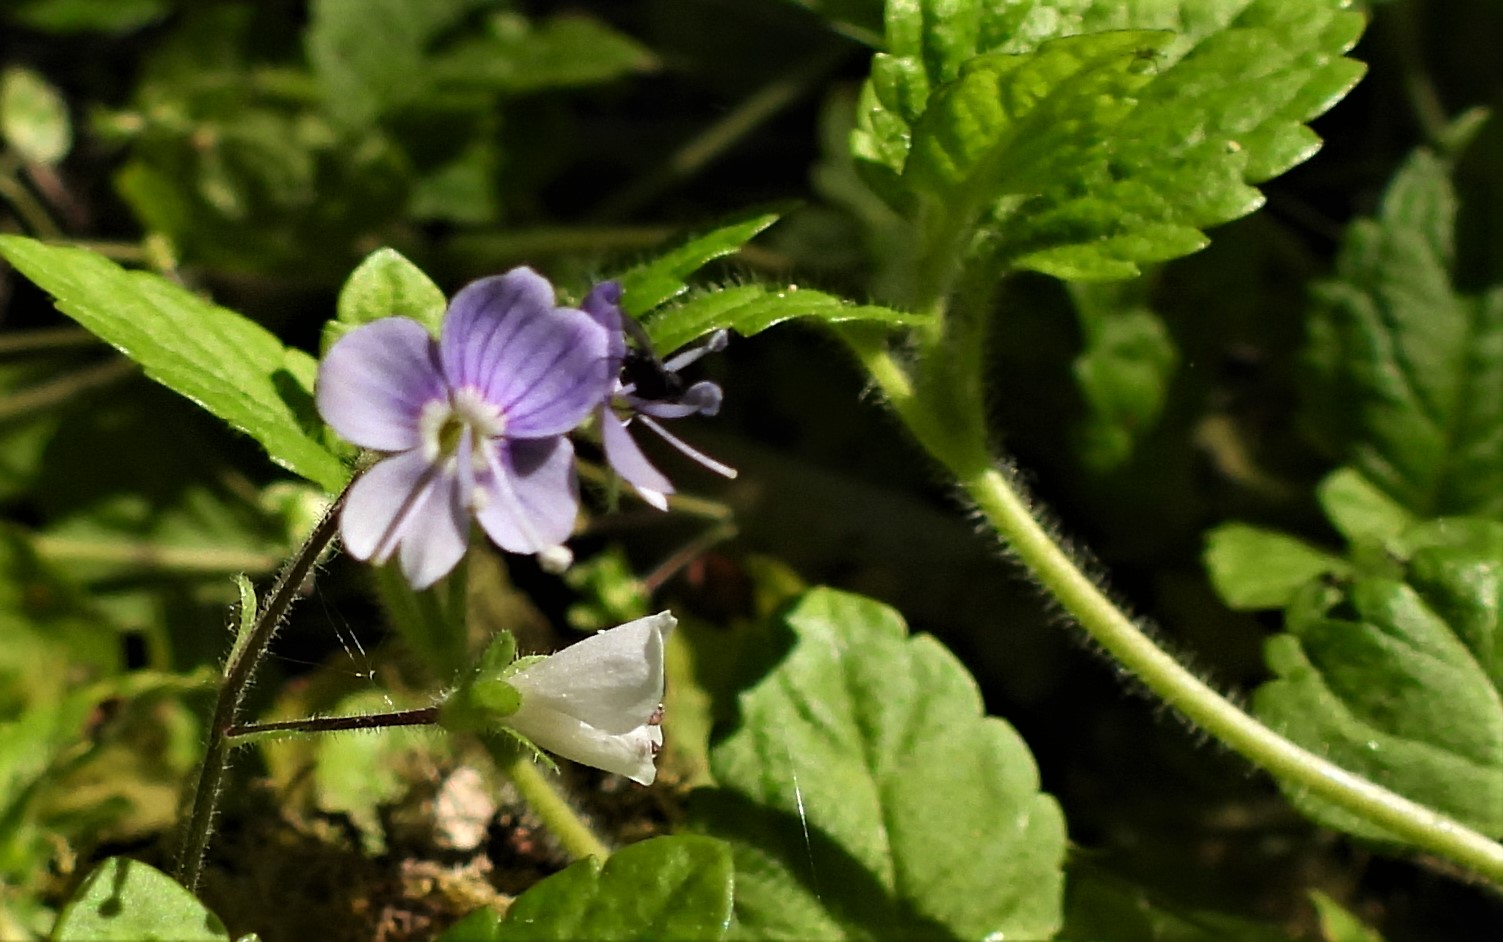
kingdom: Fungi
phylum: Basidiomycota
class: Pucciniomycetes
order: Pucciniales
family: Pucciniaceae
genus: Puccinia
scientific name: Puccinia veronicae
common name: Wood speedwell rust
